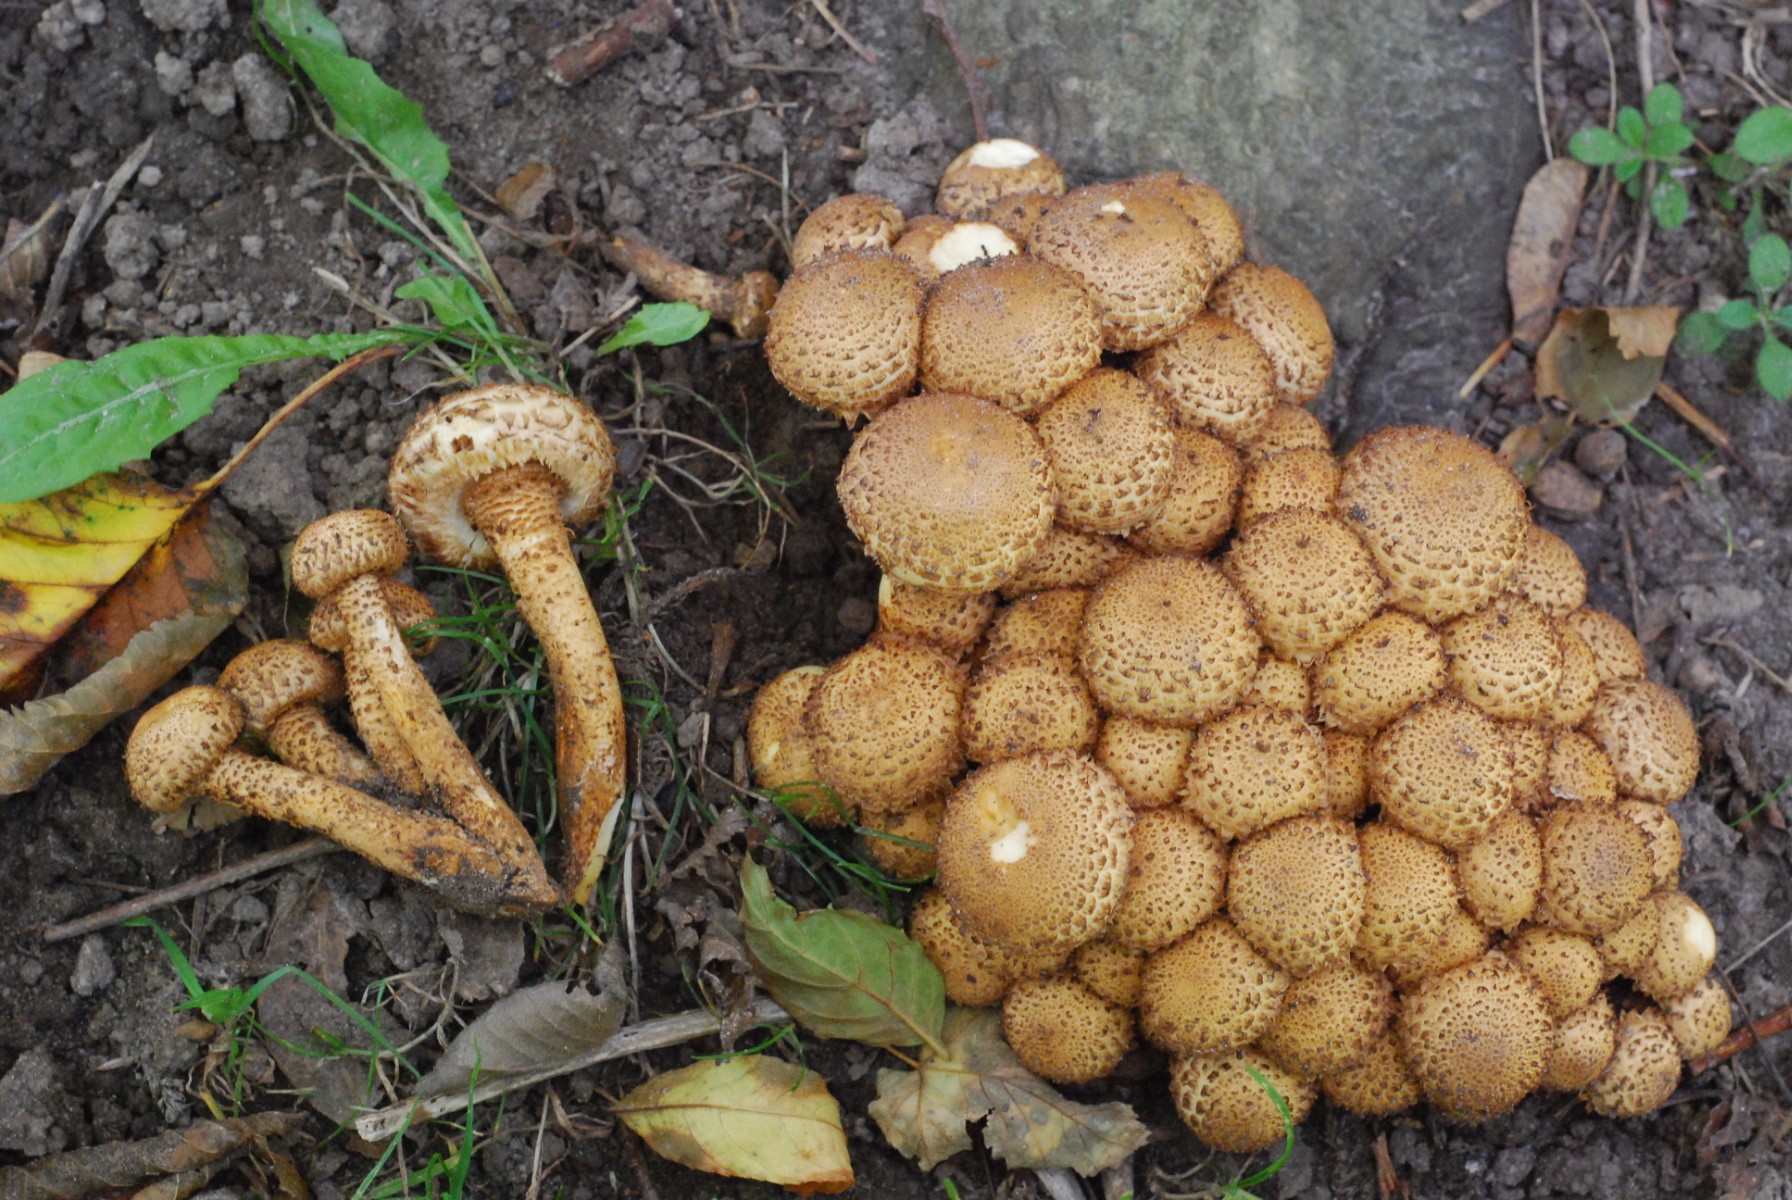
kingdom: Fungi
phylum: Basidiomycota
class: Agaricomycetes
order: Agaricales
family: Strophariaceae
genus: Pholiota
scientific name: Pholiota squarrosa
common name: krumskællet skælhat
